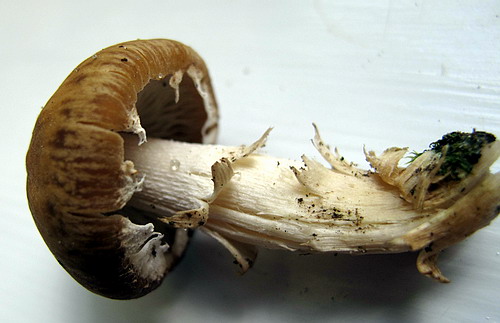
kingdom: Fungi
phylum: Basidiomycota
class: Agaricomycetes
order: Agaricales
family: Psathyrellaceae
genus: Candolleomyces
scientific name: Candolleomyces candolleanus
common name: Candolles mørkhat
